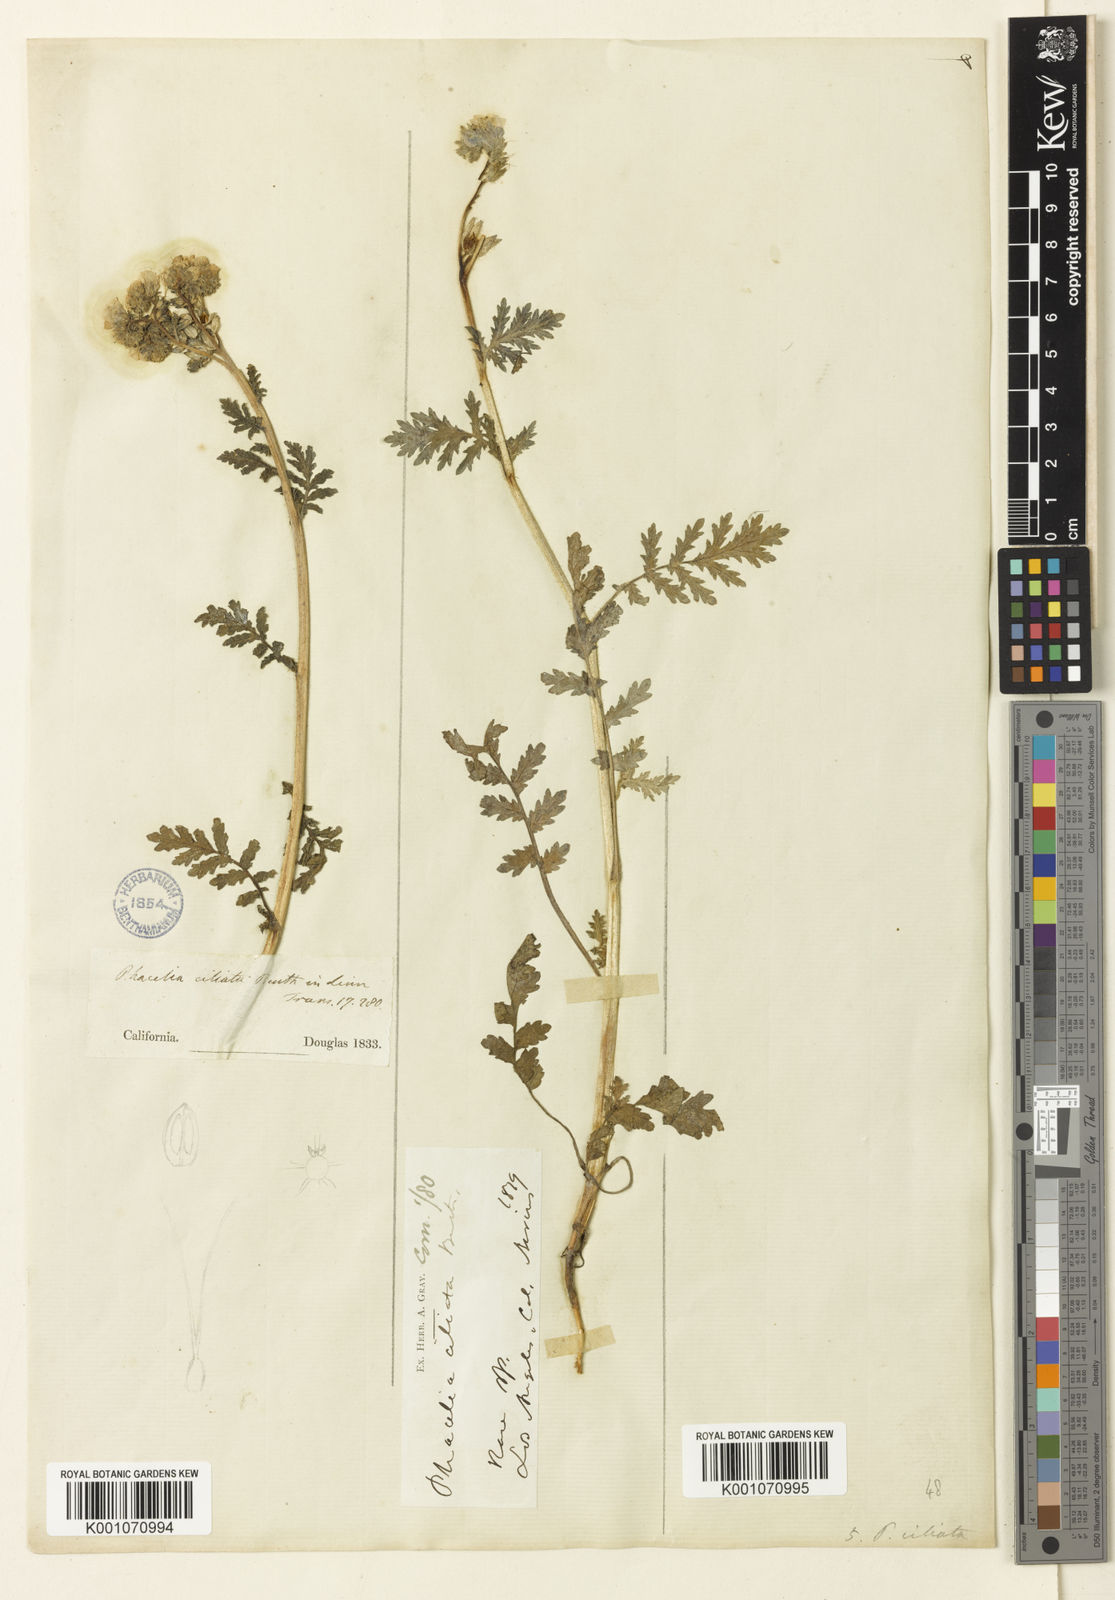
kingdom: Plantae
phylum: Tracheophyta
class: Magnoliopsida
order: Boraginales
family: Hydrophyllaceae
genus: Phacelia
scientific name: Phacelia ciliata
